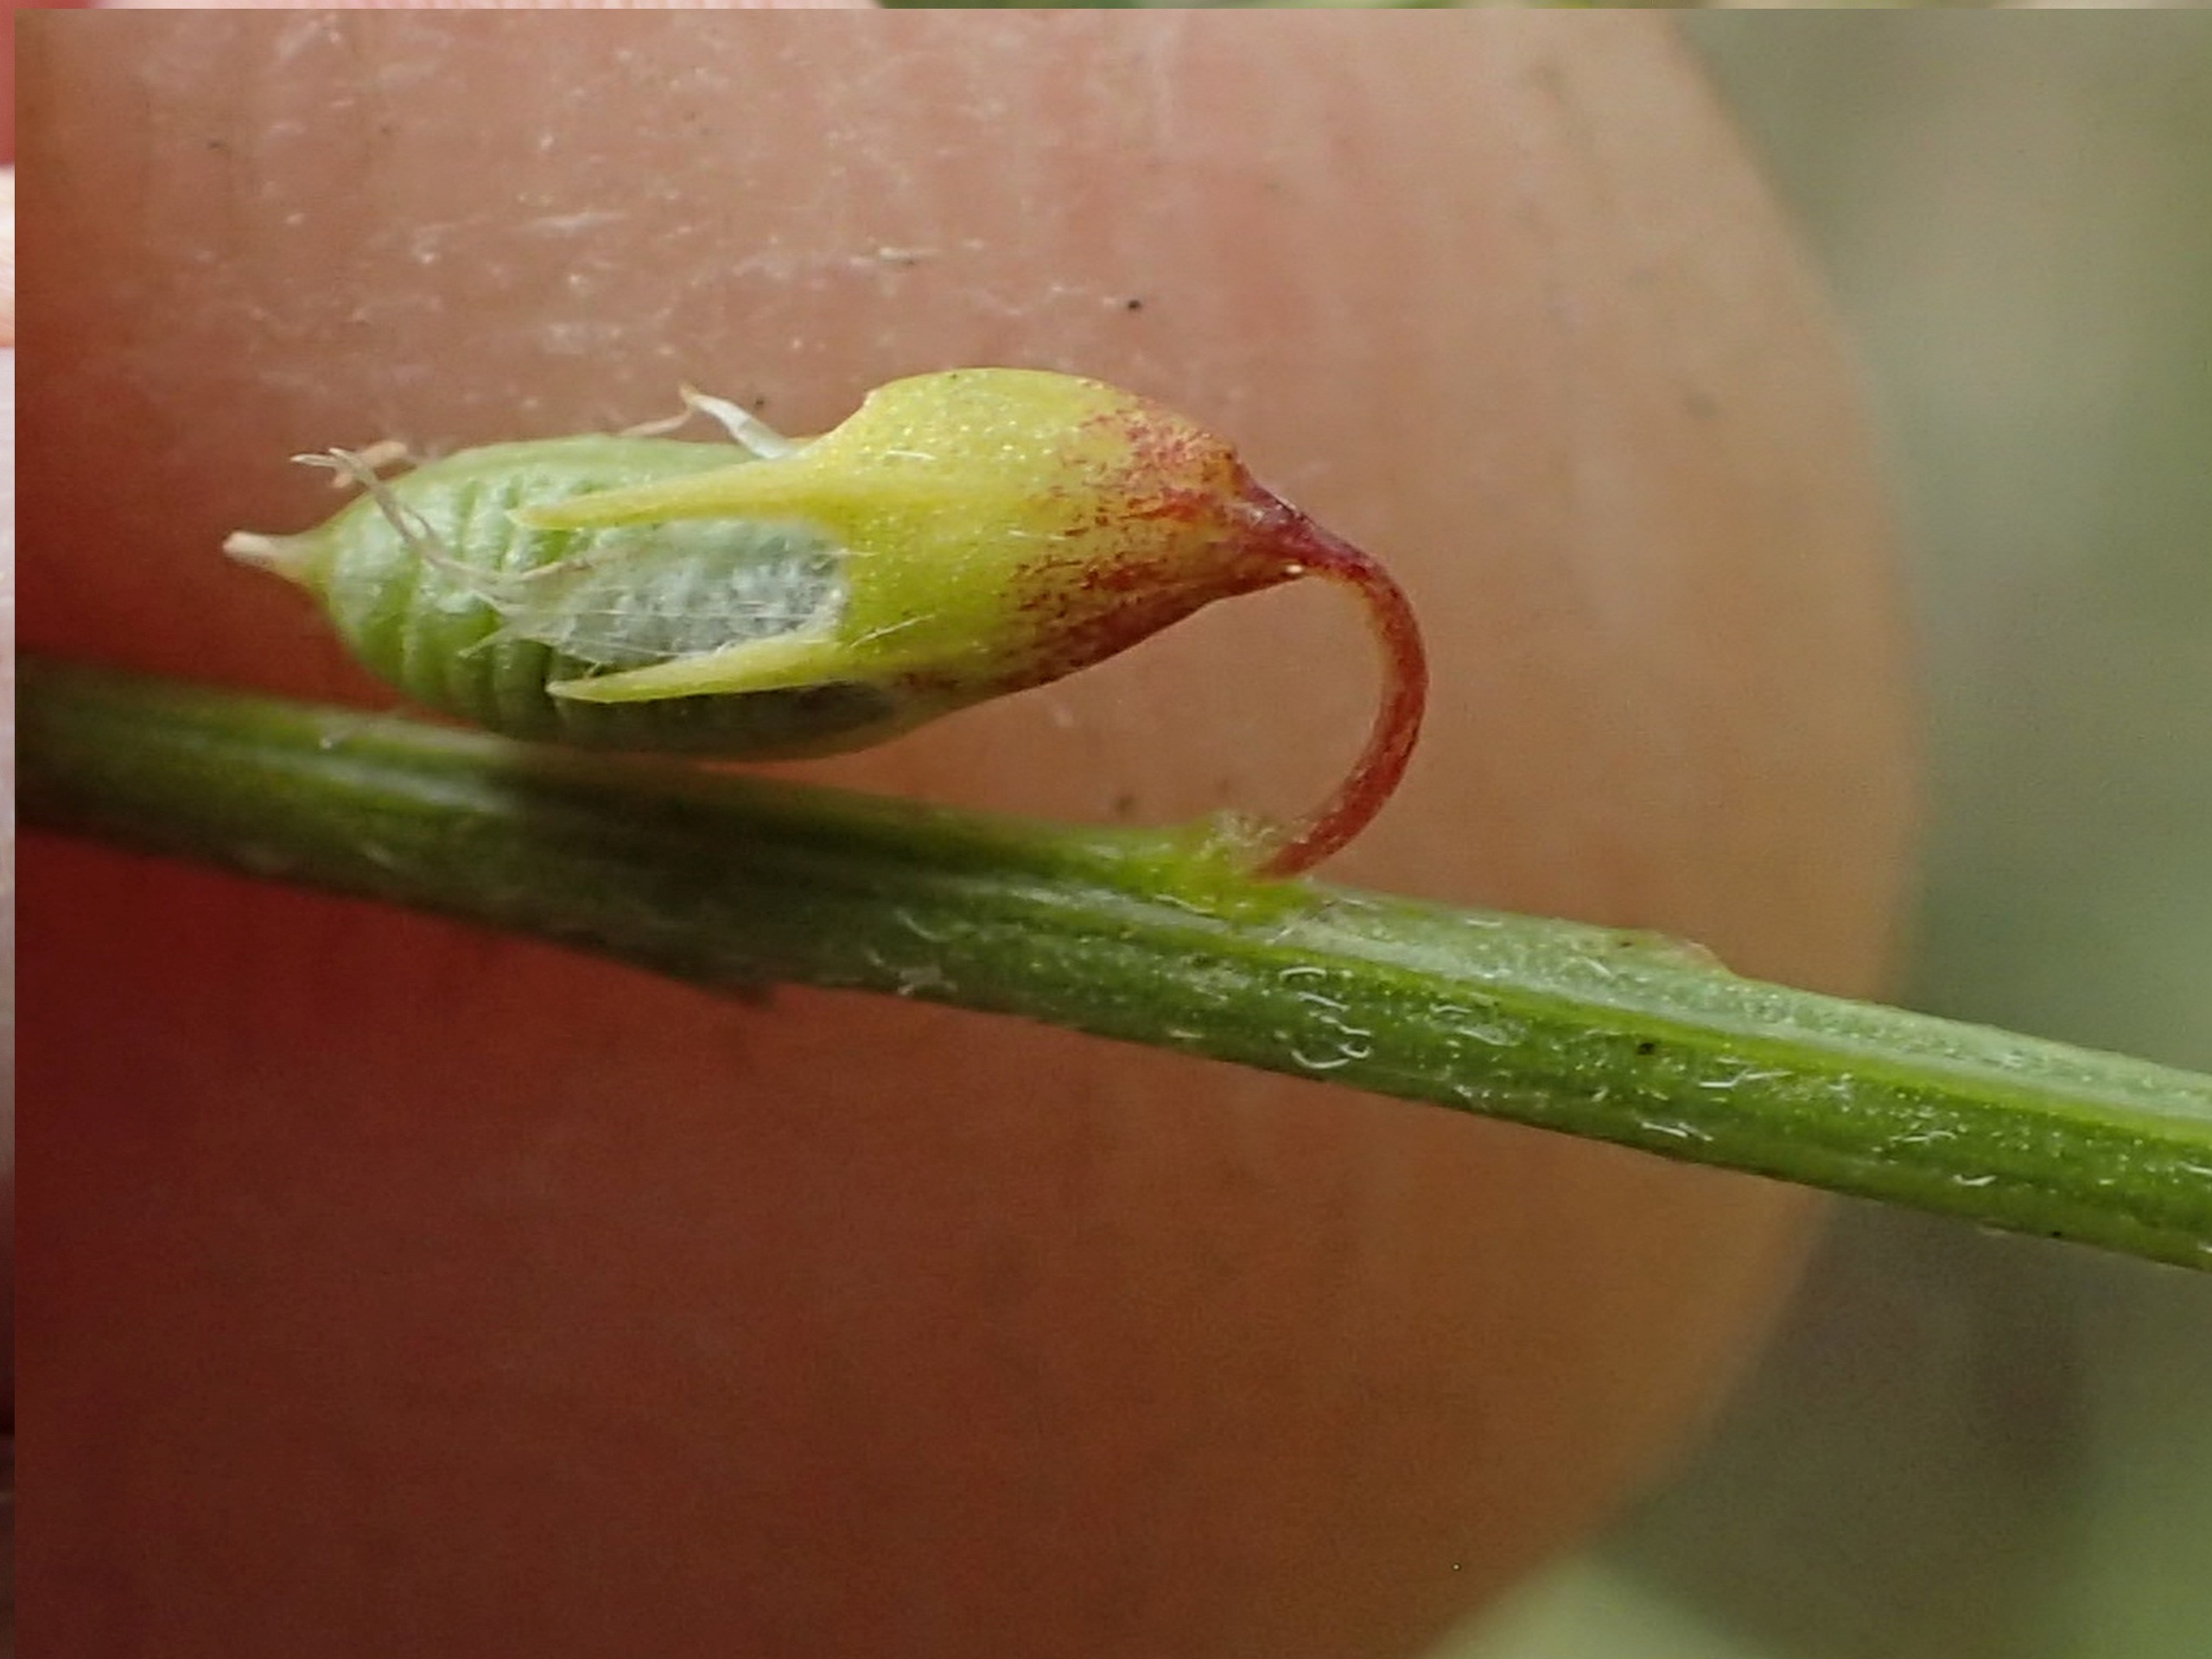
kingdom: Plantae
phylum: Tracheophyta
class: Magnoliopsida
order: Fabales
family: Fabaceae
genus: Melilotus
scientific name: Melilotus officinalis
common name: Mark-stenkløver
